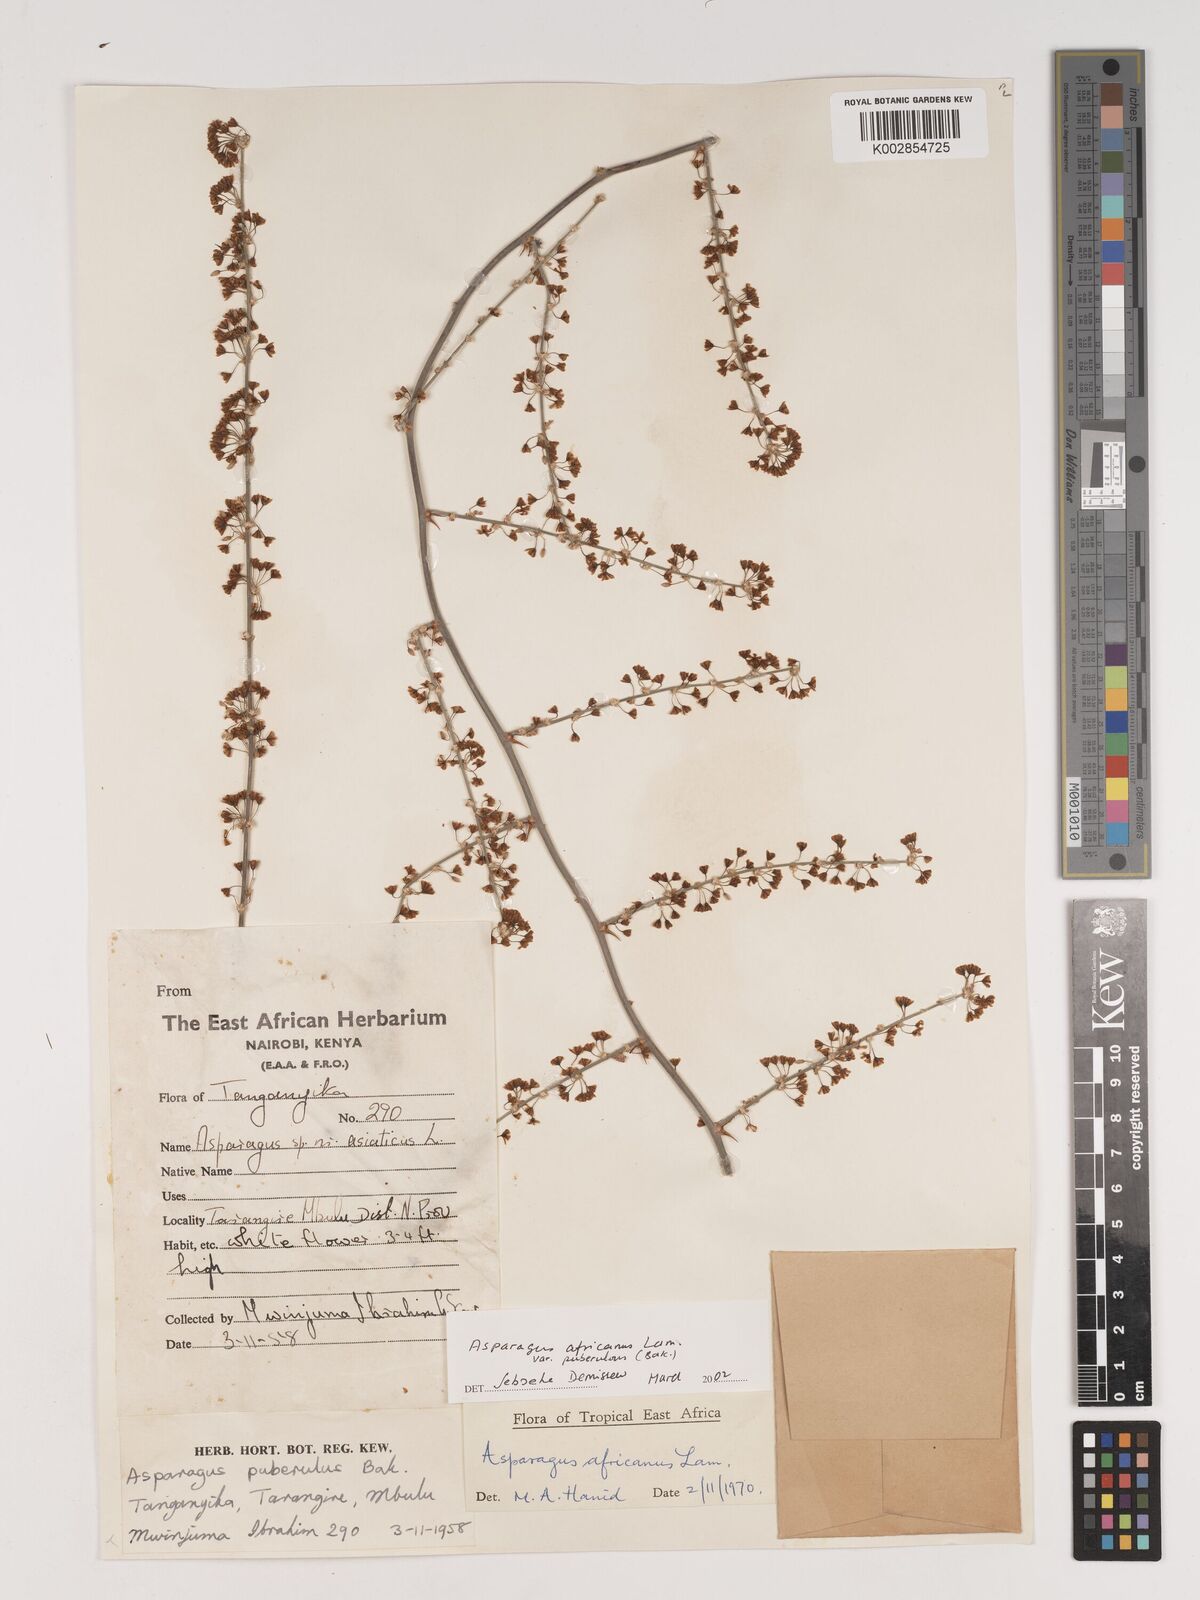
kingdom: Plantae
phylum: Tracheophyta
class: Liliopsida
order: Asparagales
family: Asparagaceae
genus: Asparagus
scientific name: Asparagus africanus
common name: Asparagus-fern
